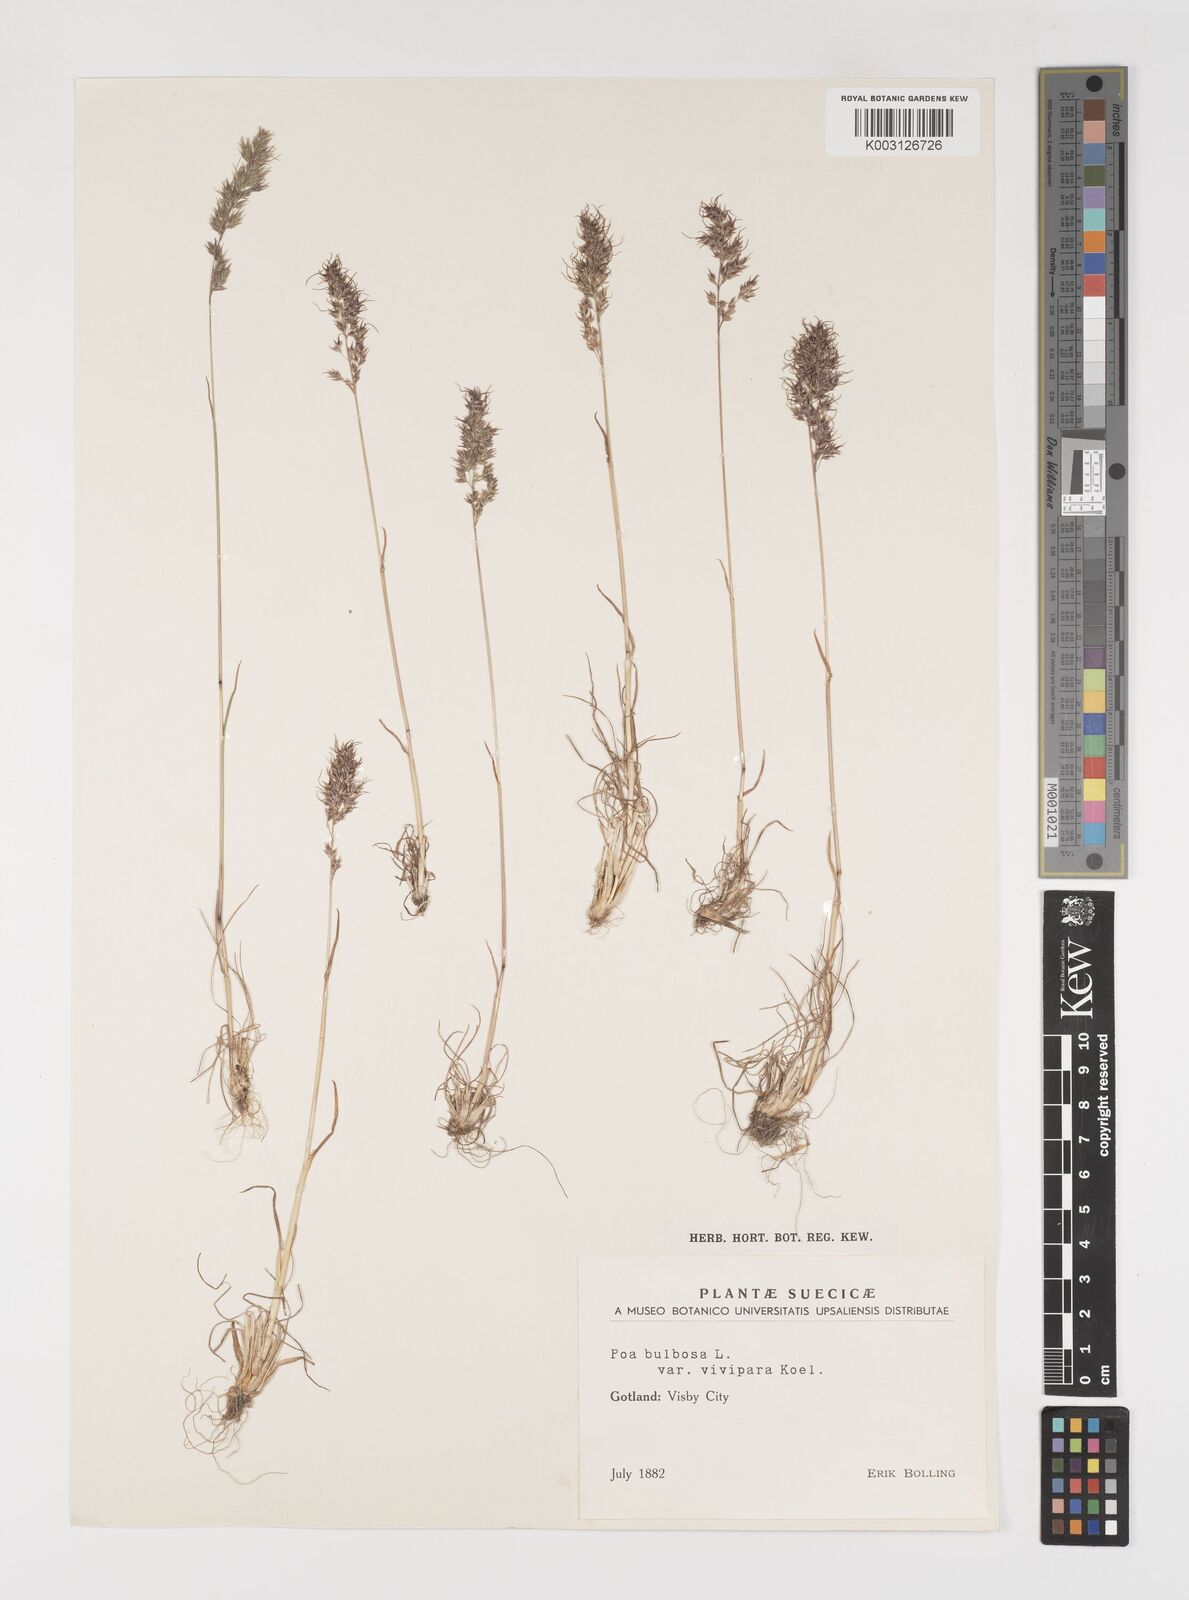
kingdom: Plantae
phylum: Tracheophyta
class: Liliopsida
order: Poales
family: Poaceae
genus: Poa
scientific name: Poa bulbosa
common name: Bulbous bluegrass
